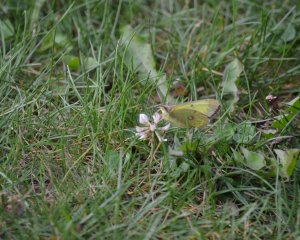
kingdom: Animalia
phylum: Arthropoda
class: Insecta
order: Lepidoptera
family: Pieridae
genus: Colias
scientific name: Colias philodice
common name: Clouded Sulphur
